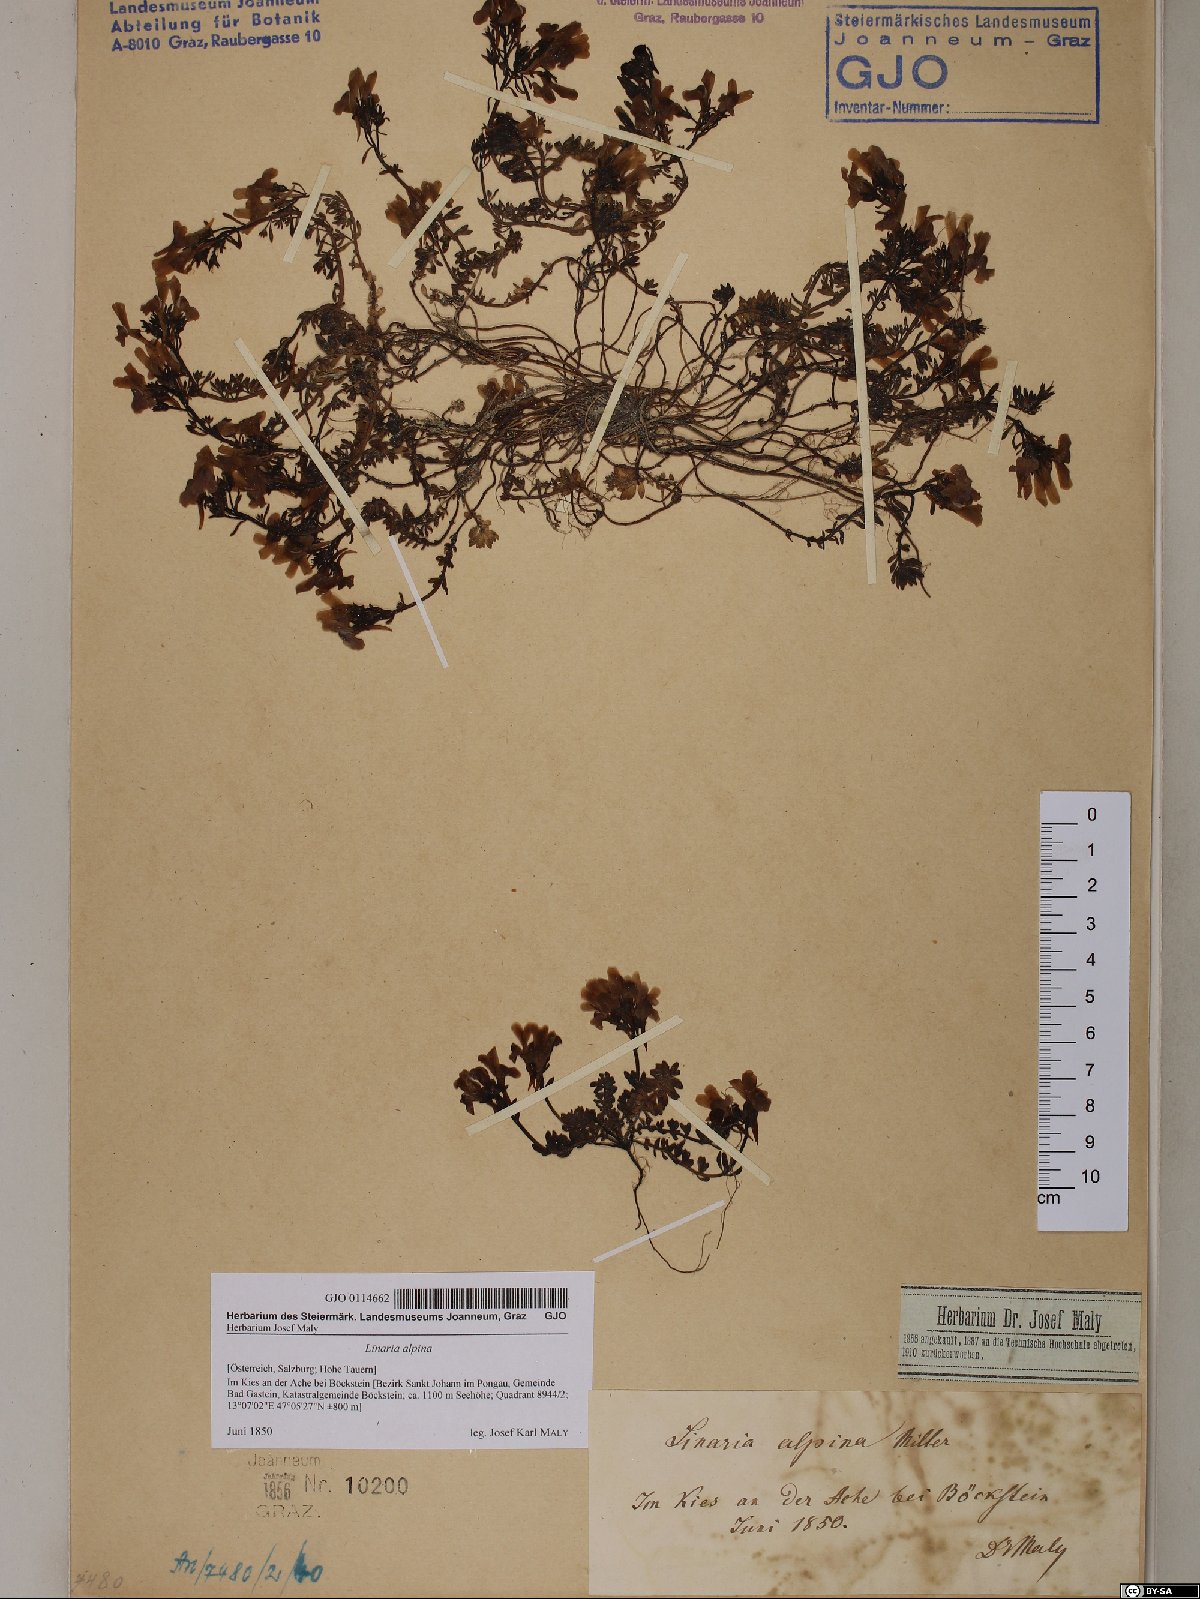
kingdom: Plantae
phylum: Tracheophyta
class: Magnoliopsida
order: Lamiales
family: Plantaginaceae
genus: Linaria
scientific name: Linaria alpina
